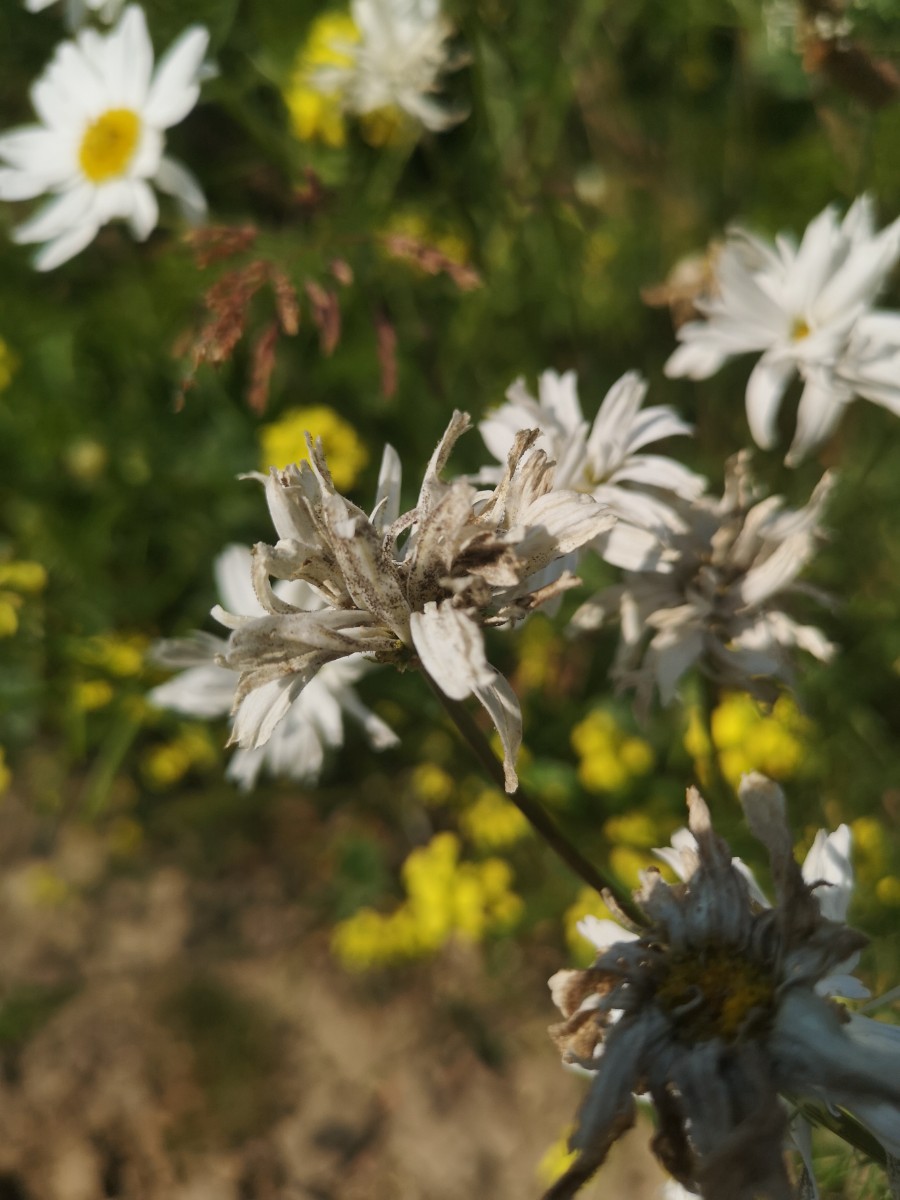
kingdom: Chromista
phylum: Oomycota
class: Peronosporea
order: Peronosporales
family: Peronosporaceae
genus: Peronospora
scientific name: Peronospora radii
